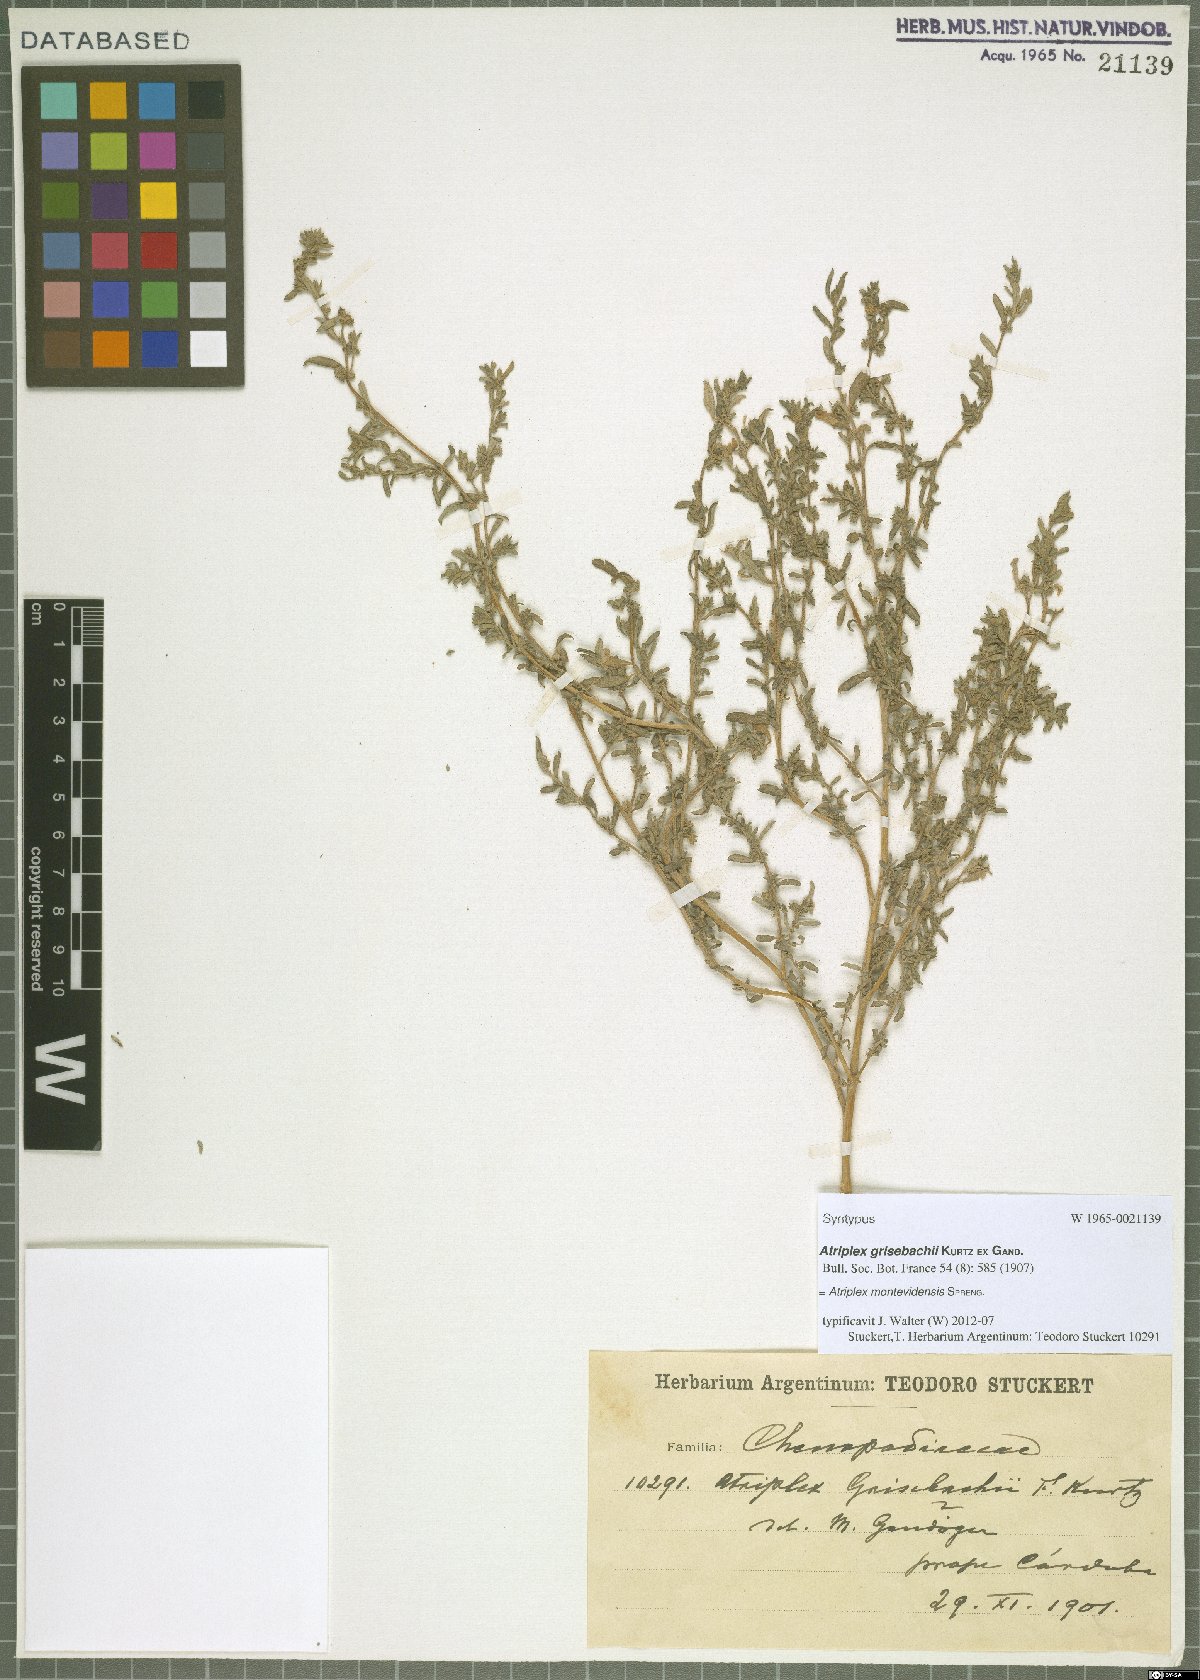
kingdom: Plantae
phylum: Tracheophyta
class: Magnoliopsida
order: Caryophyllales
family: Amaranthaceae
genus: Atriplex
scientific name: Atriplex montevidensis
